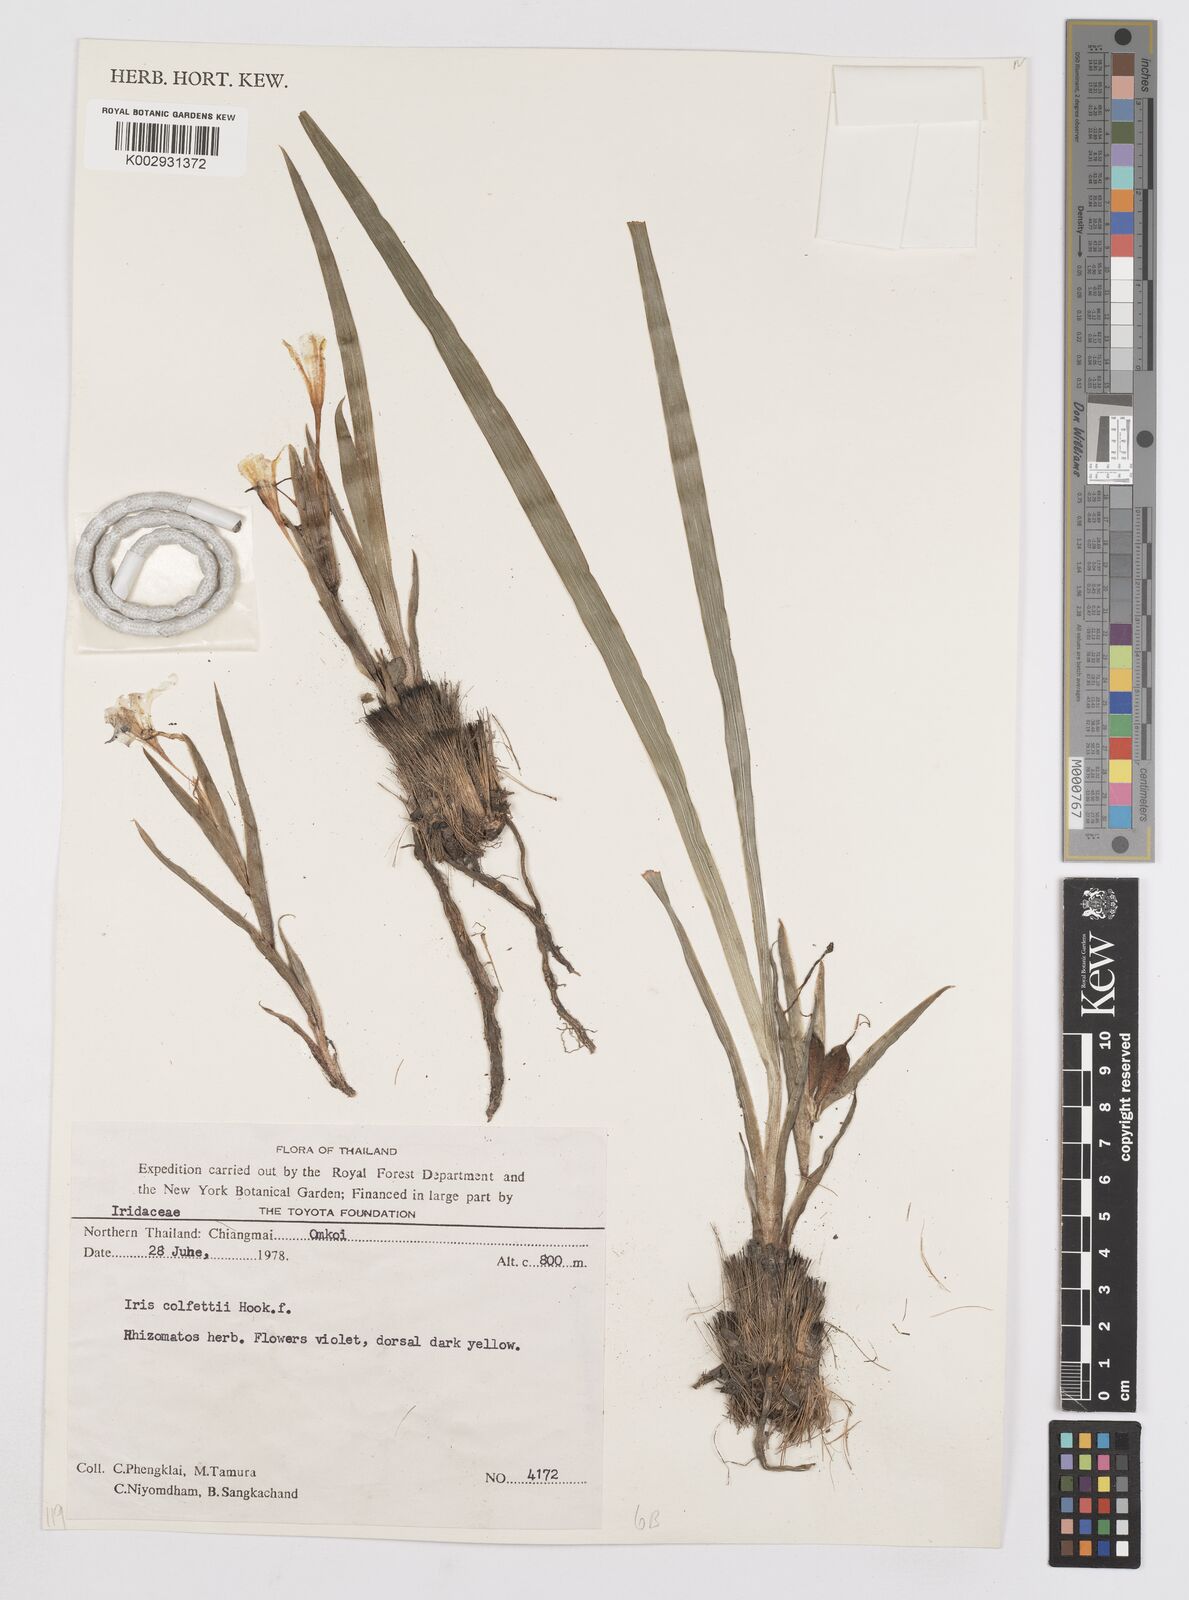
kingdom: Plantae
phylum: Tracheophyta
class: Liliopsida
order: Asparagales
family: Iridaceae
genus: Iris
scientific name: Iris collettii
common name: Plateau iris
